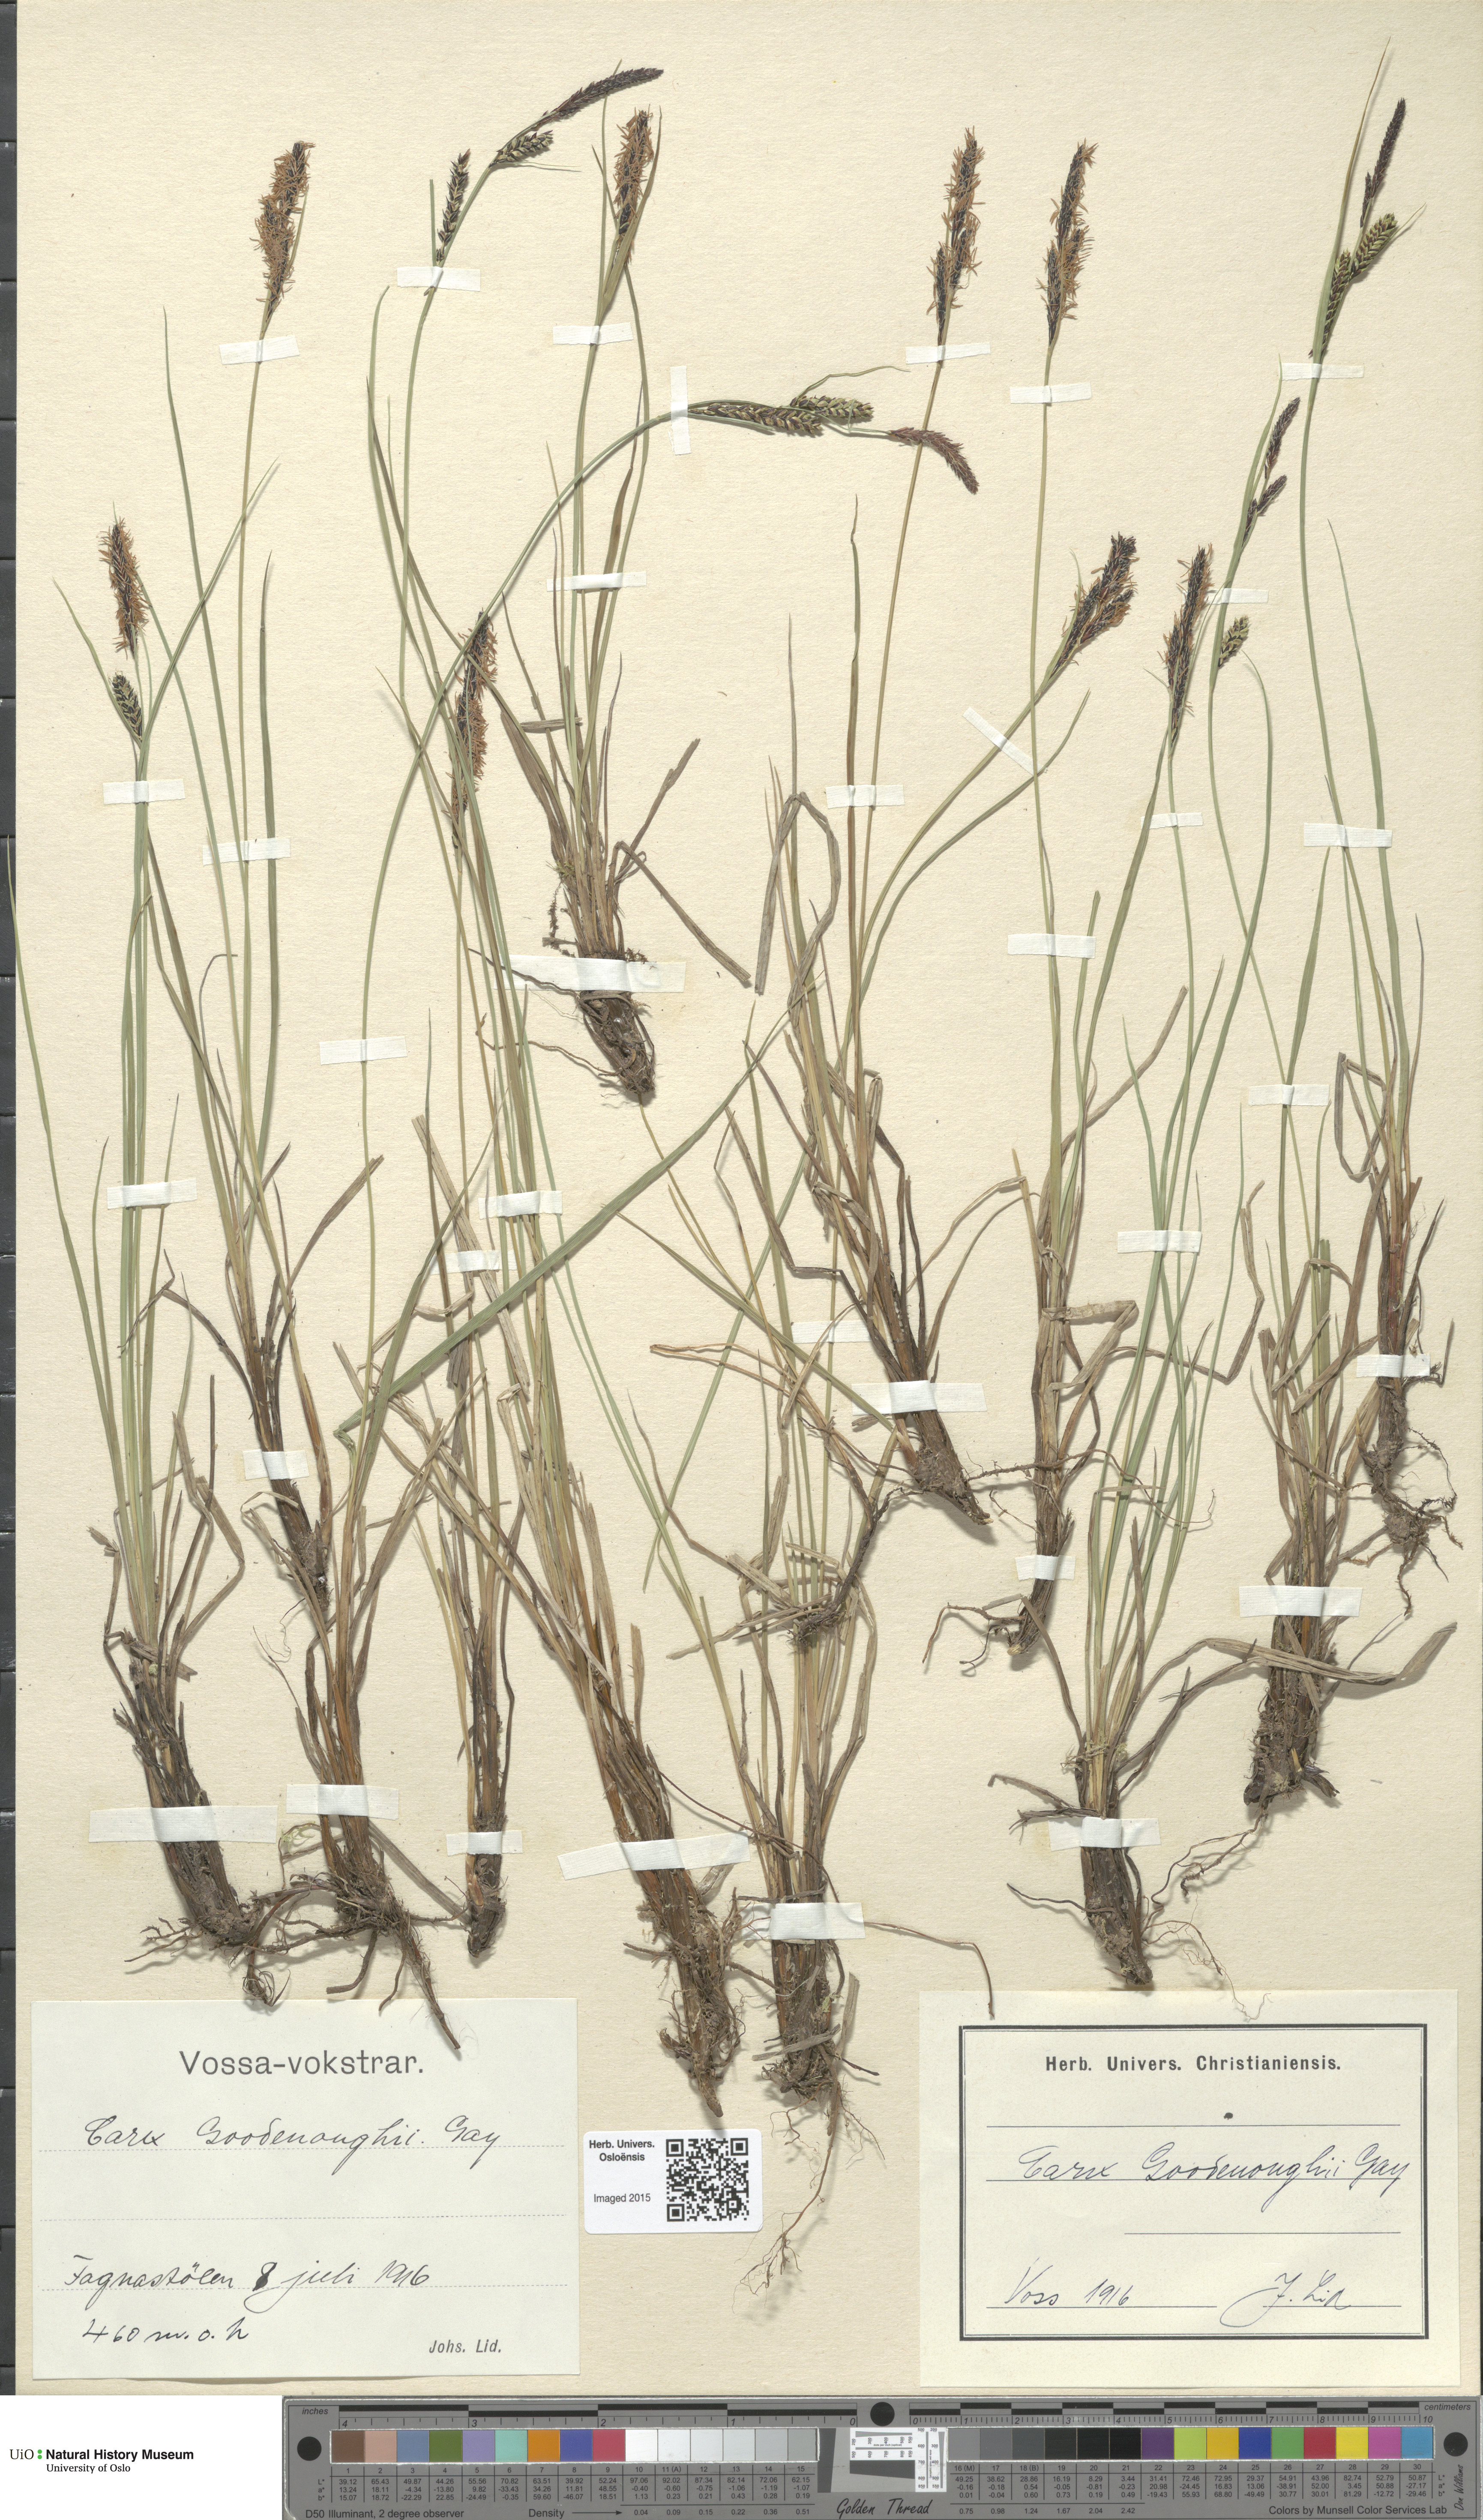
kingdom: Plantae
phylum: Tracheophyta
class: Liliopsida
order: Poales
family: Cyperaceae
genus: Carex
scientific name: Carex nigra
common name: Common sedge
